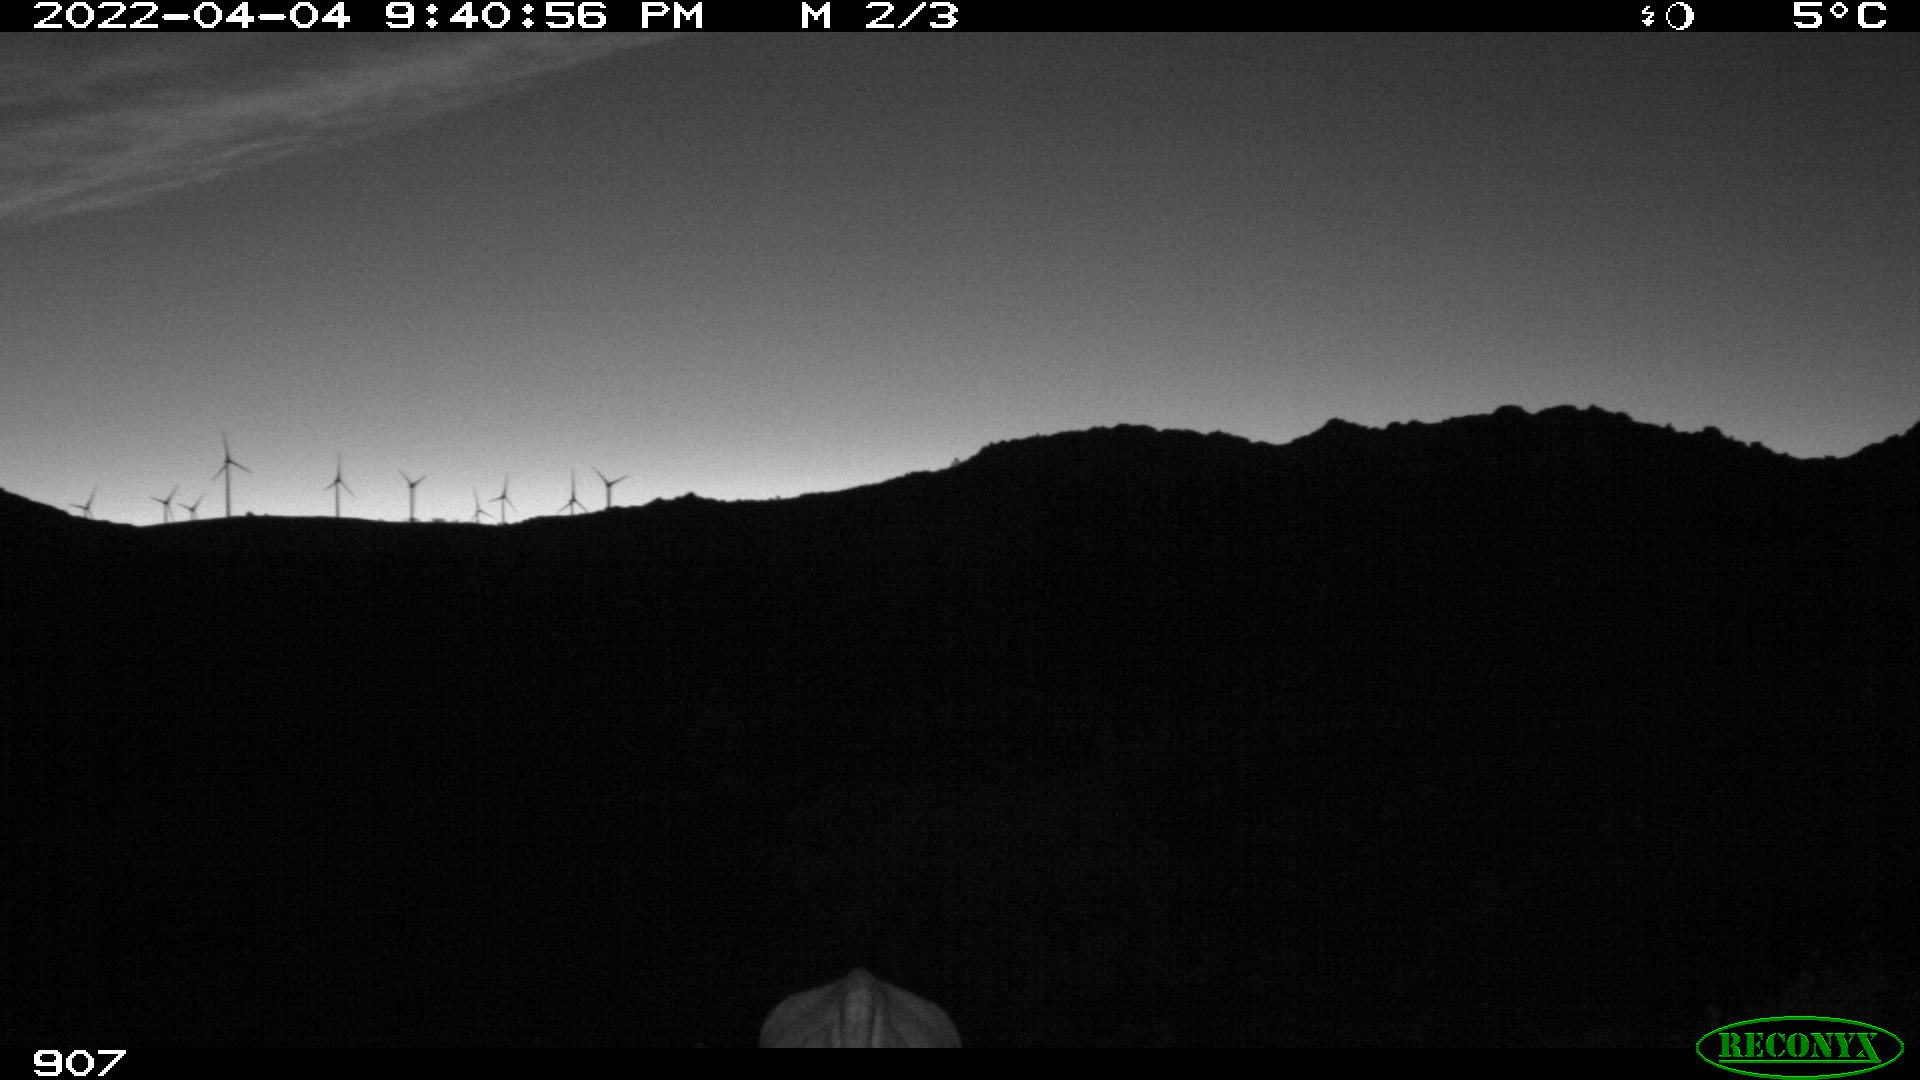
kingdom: Animalia
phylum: Chordata
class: Mammalia
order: Artiodactyla
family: Bovidae
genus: Bos
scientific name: Bos taurus
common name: Domesticated cattle
